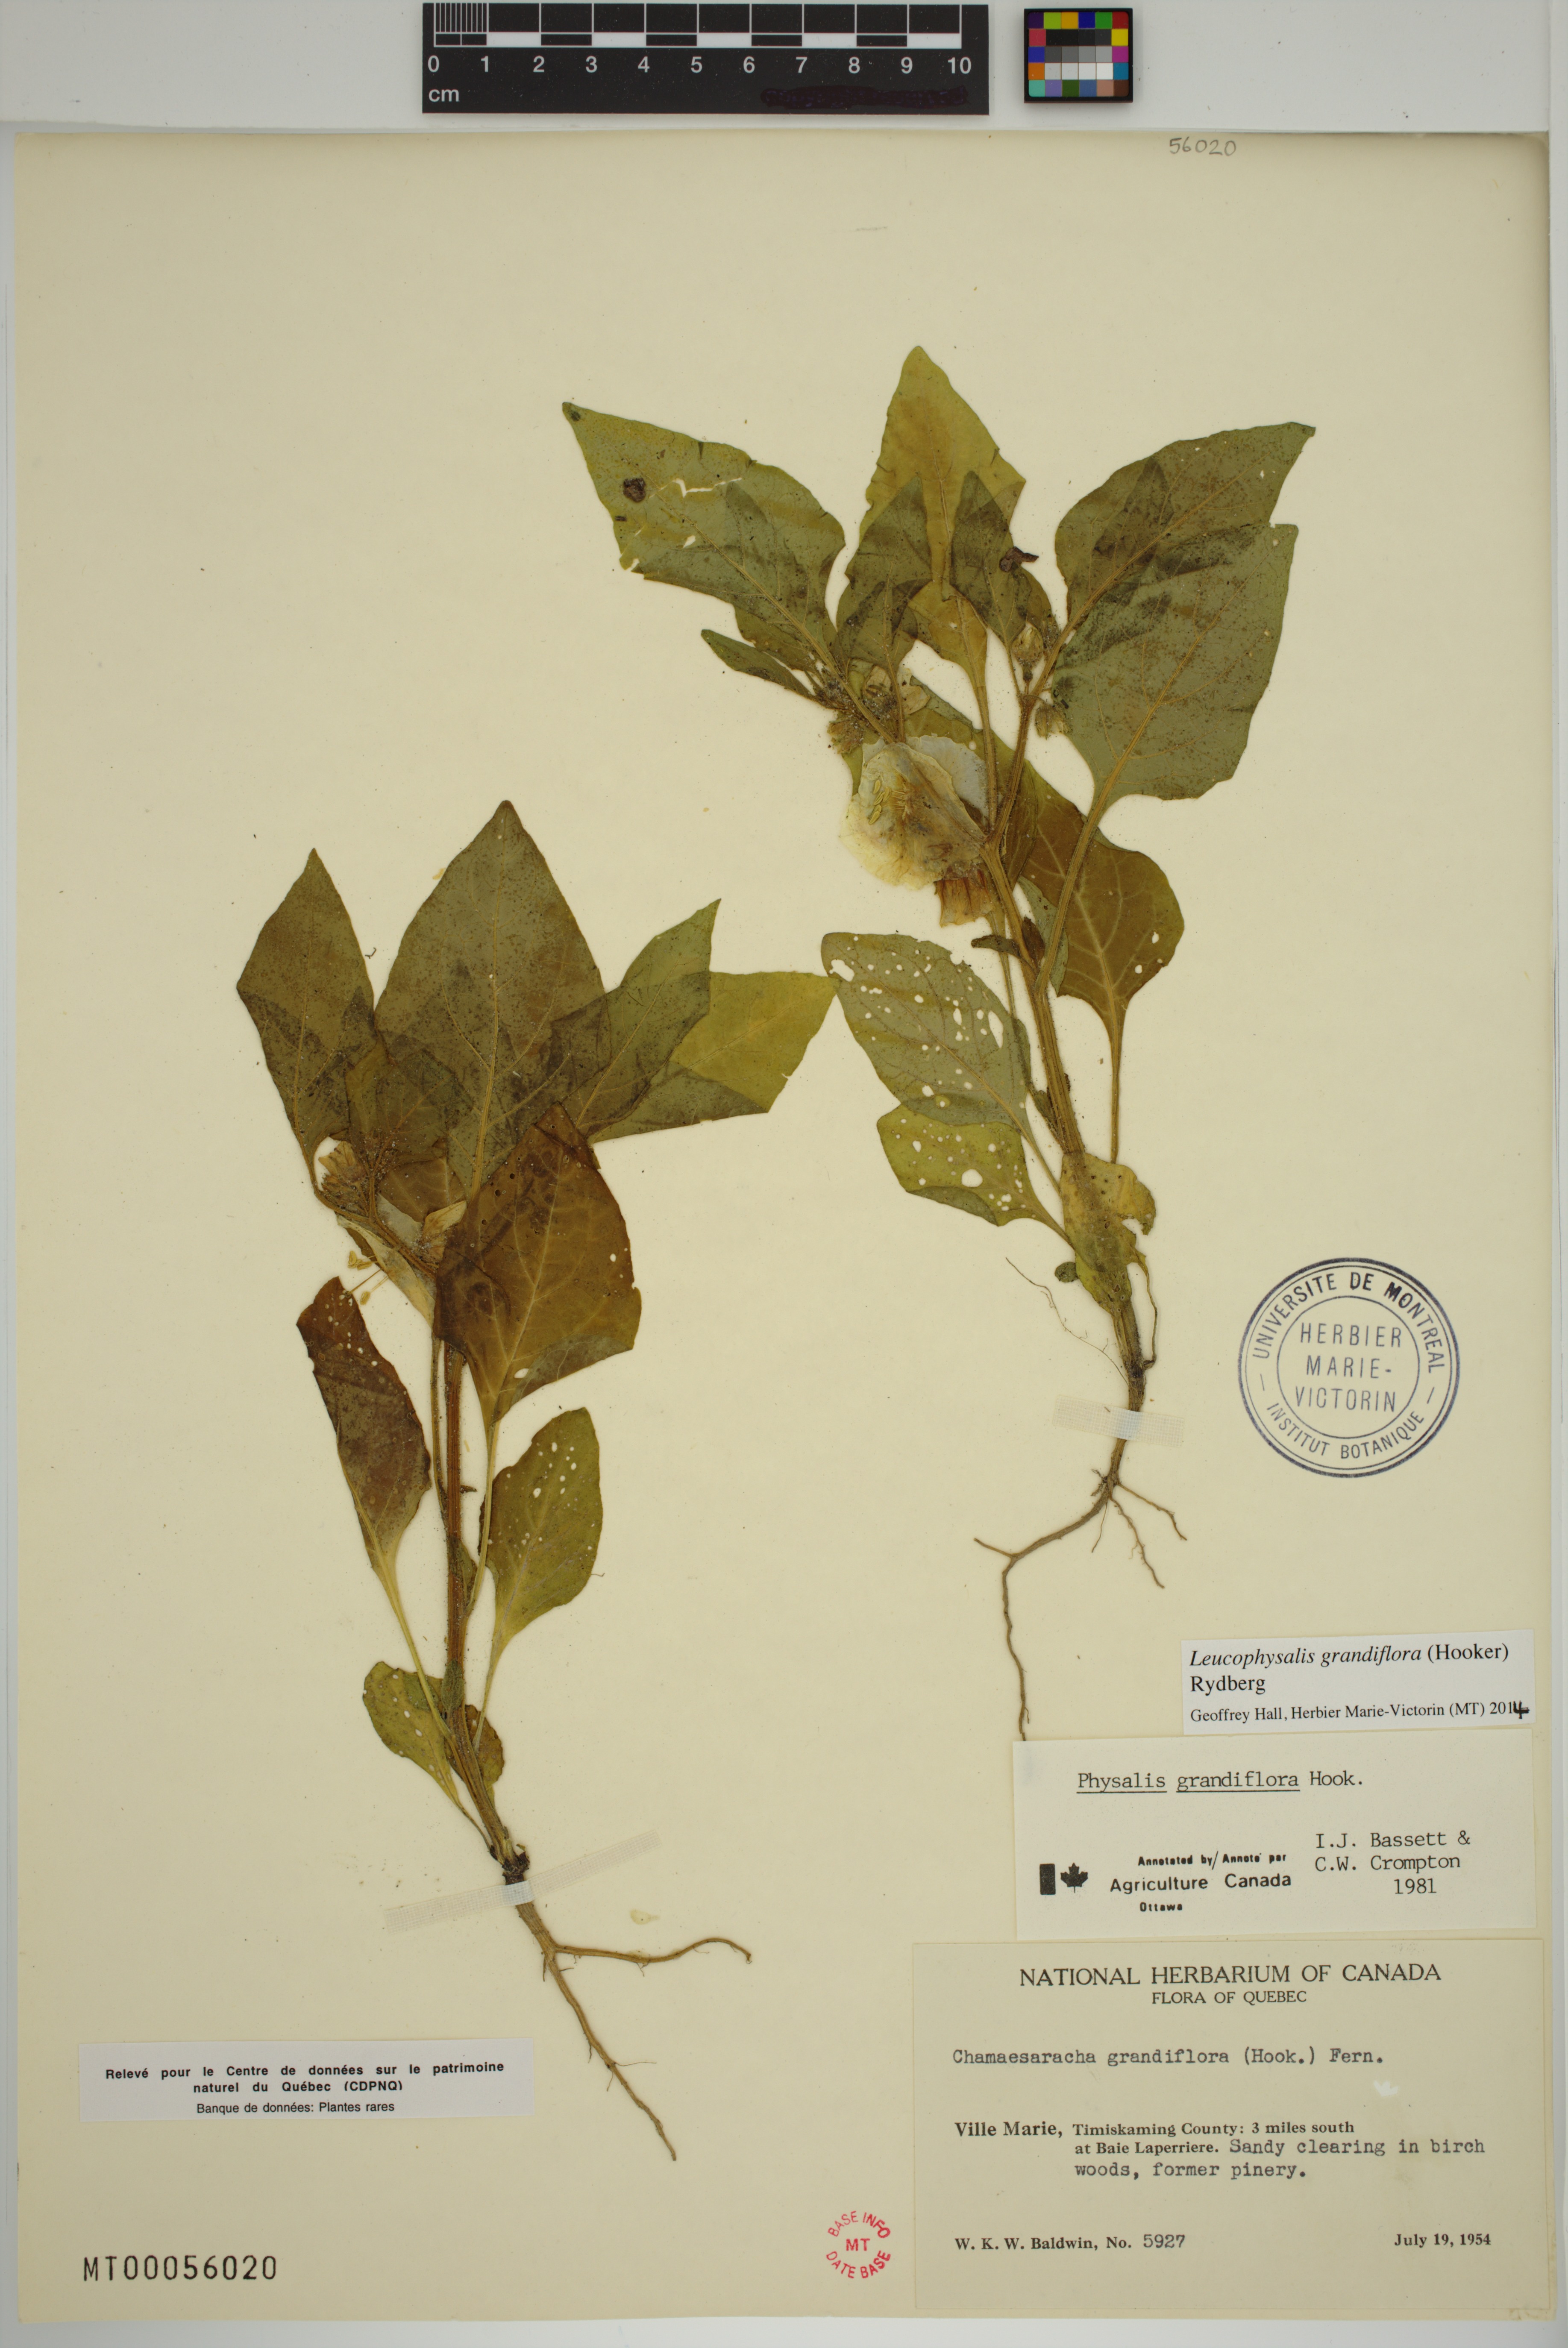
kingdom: Plantae
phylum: Tracheophyta
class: Magnoliopsida
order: Solanales
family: Solanaceae
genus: Leucophysalis
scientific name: Leucophysalis grandiflora
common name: Large false ground-cherry
